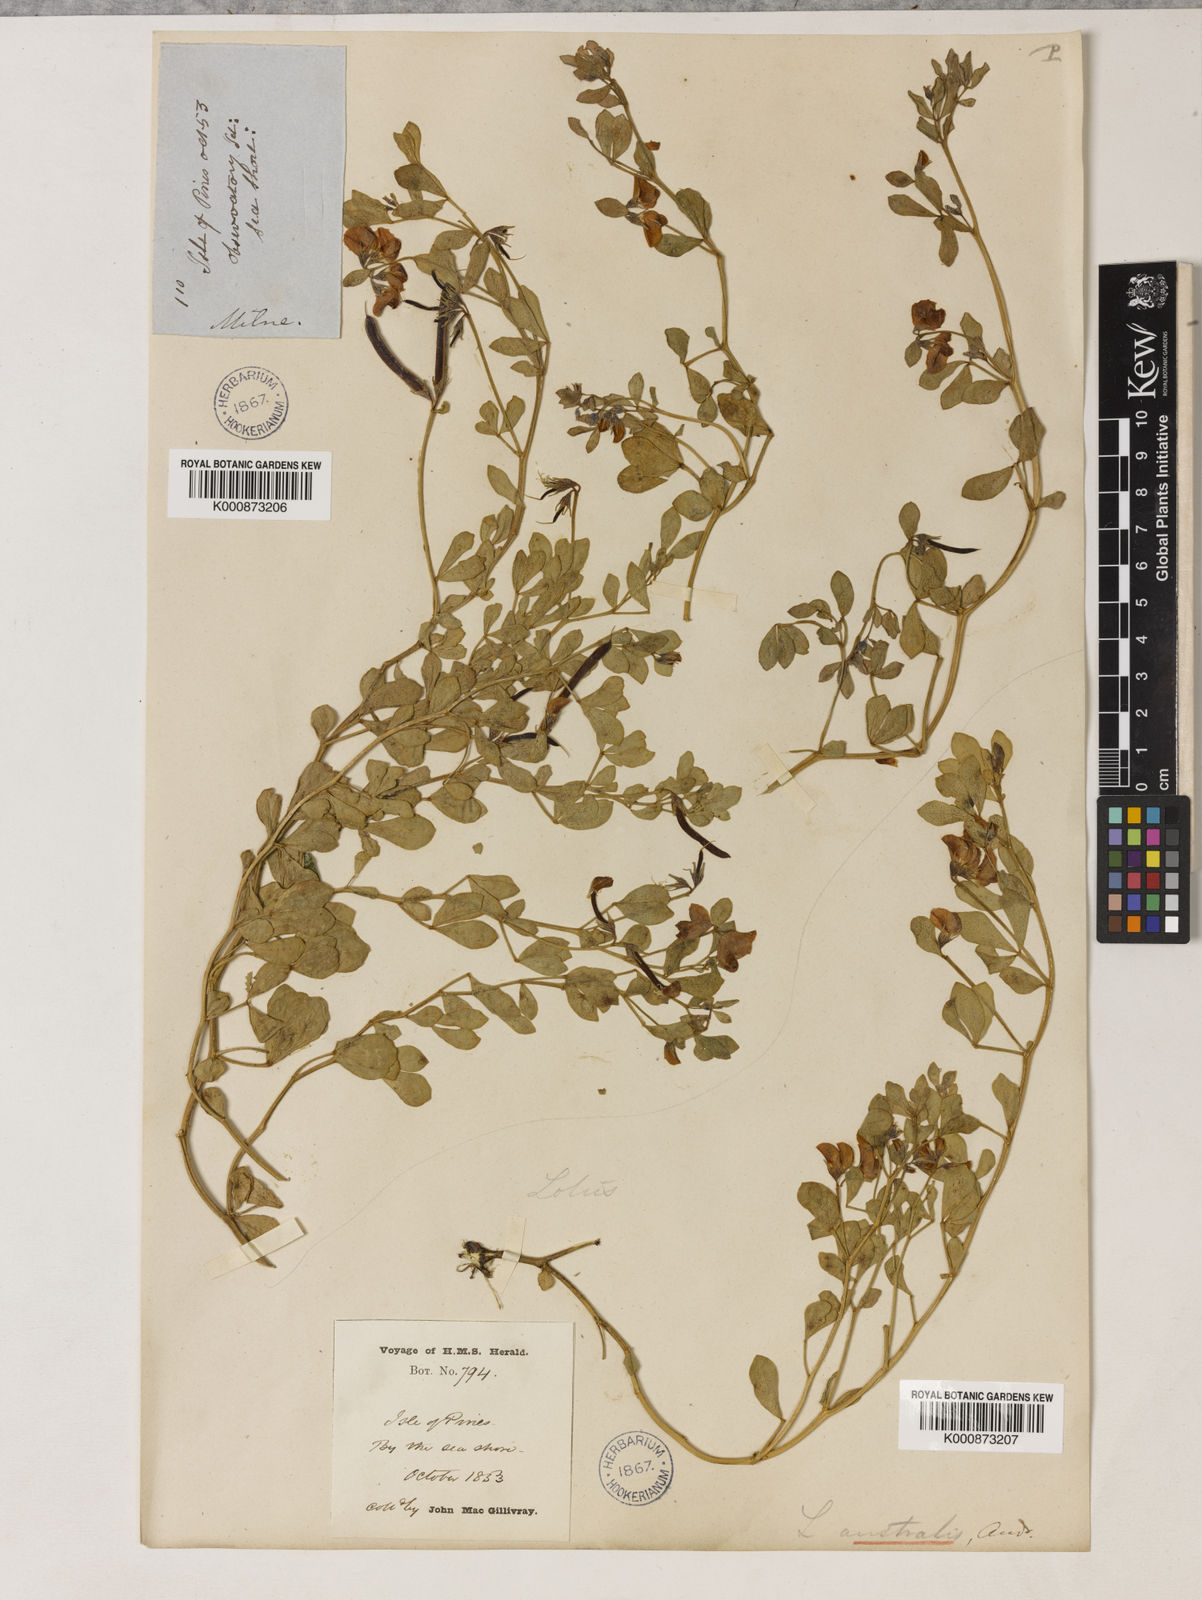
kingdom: Plantae
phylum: Tracheophyta
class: Magnoliopsida
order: Fabales
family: Fabaceae
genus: Lotus
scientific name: Lotus australis
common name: Australian trefoil
